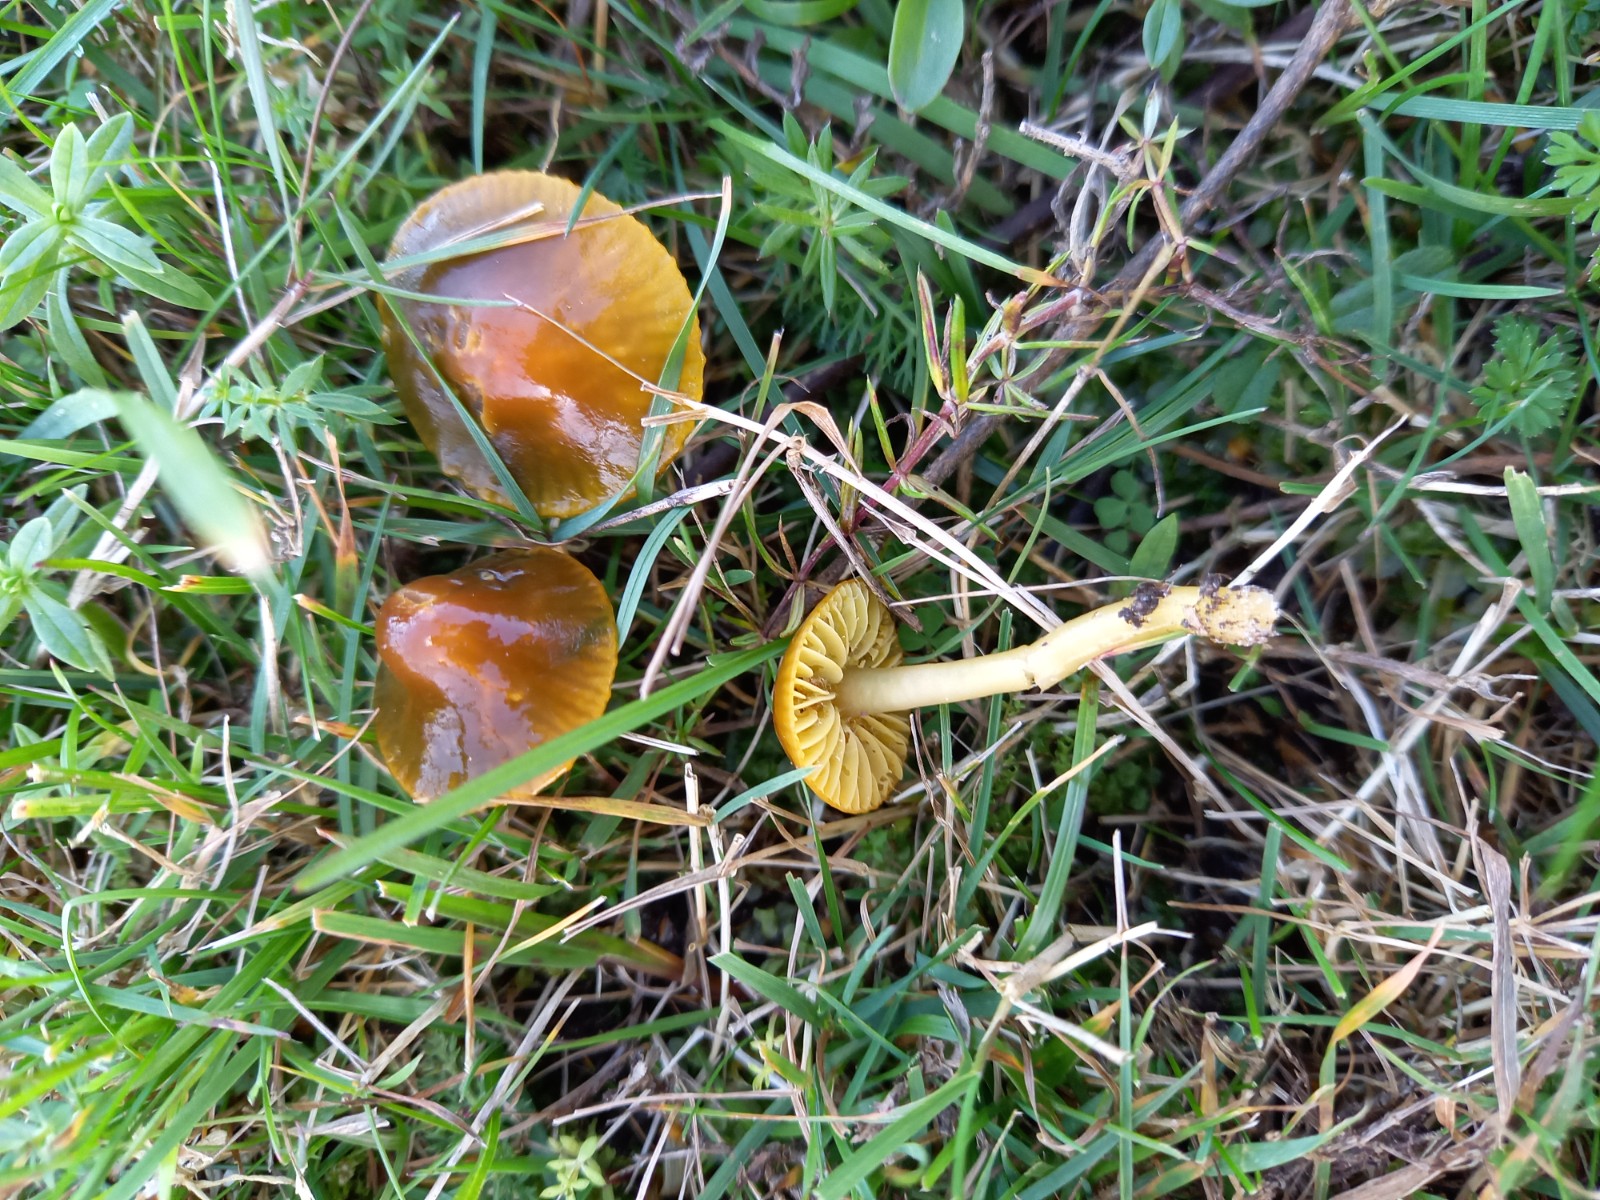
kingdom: Fungi
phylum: Basidiomycota
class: Agaricomycetes
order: Agaricales
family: Hygrophoraceae
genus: Gliophorus
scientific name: Gliophorus psittacinus
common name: papegøje-vokshat
